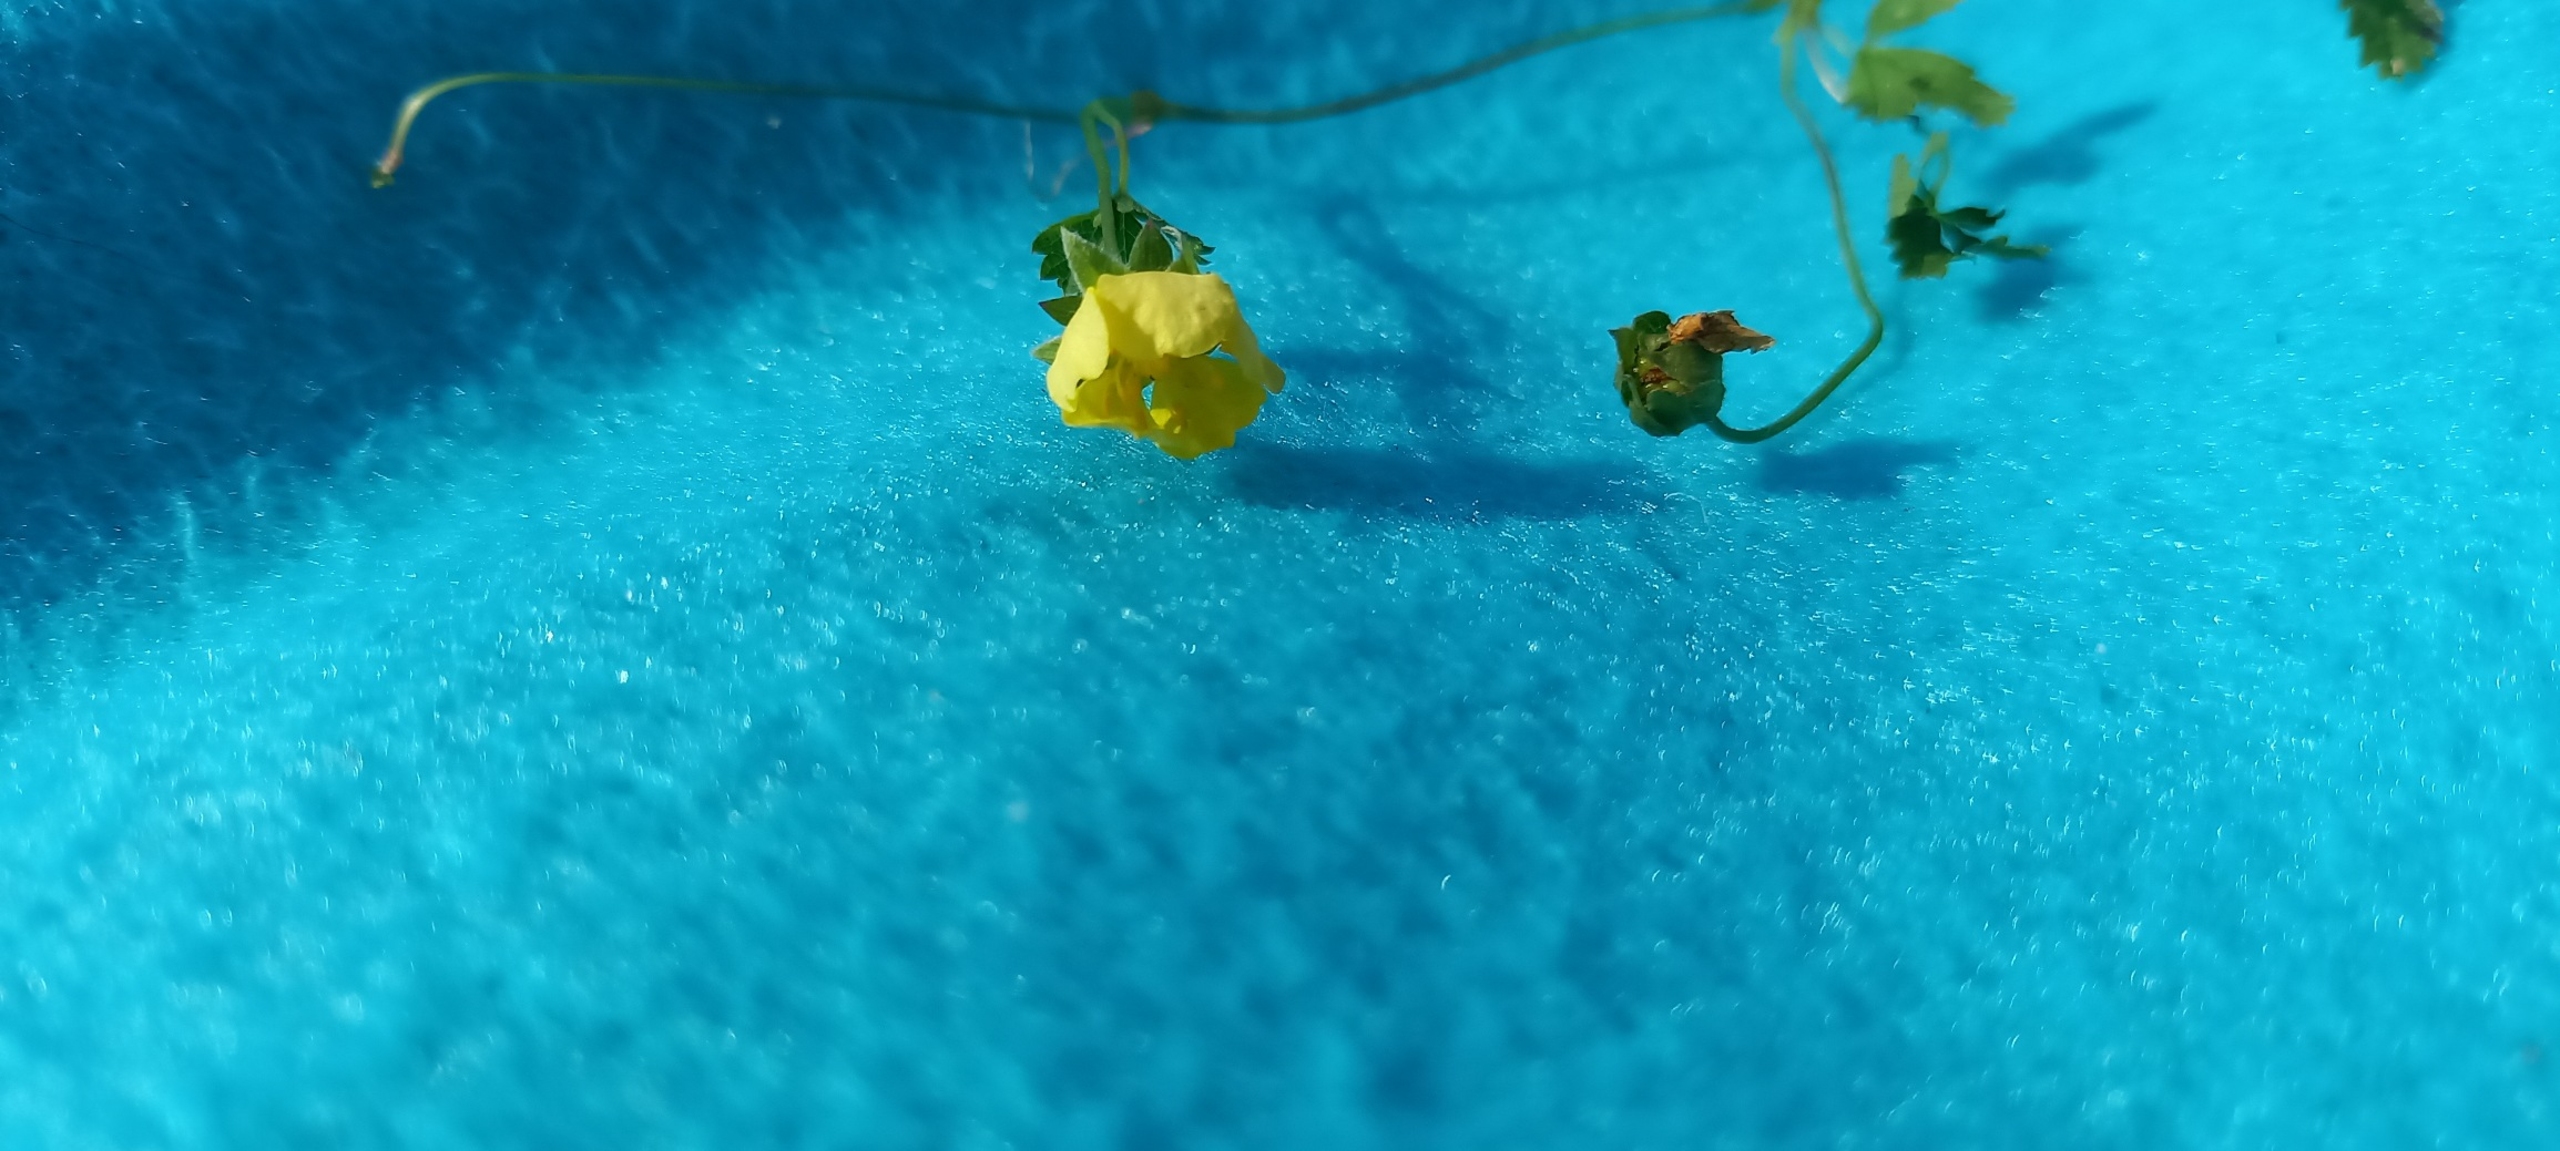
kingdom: Plantae
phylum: Tracheophyta
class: Magnoliopsida
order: Rosales
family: Rosaceae
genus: Potentilla
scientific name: Potentilla reptans
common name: Krybende potentil
